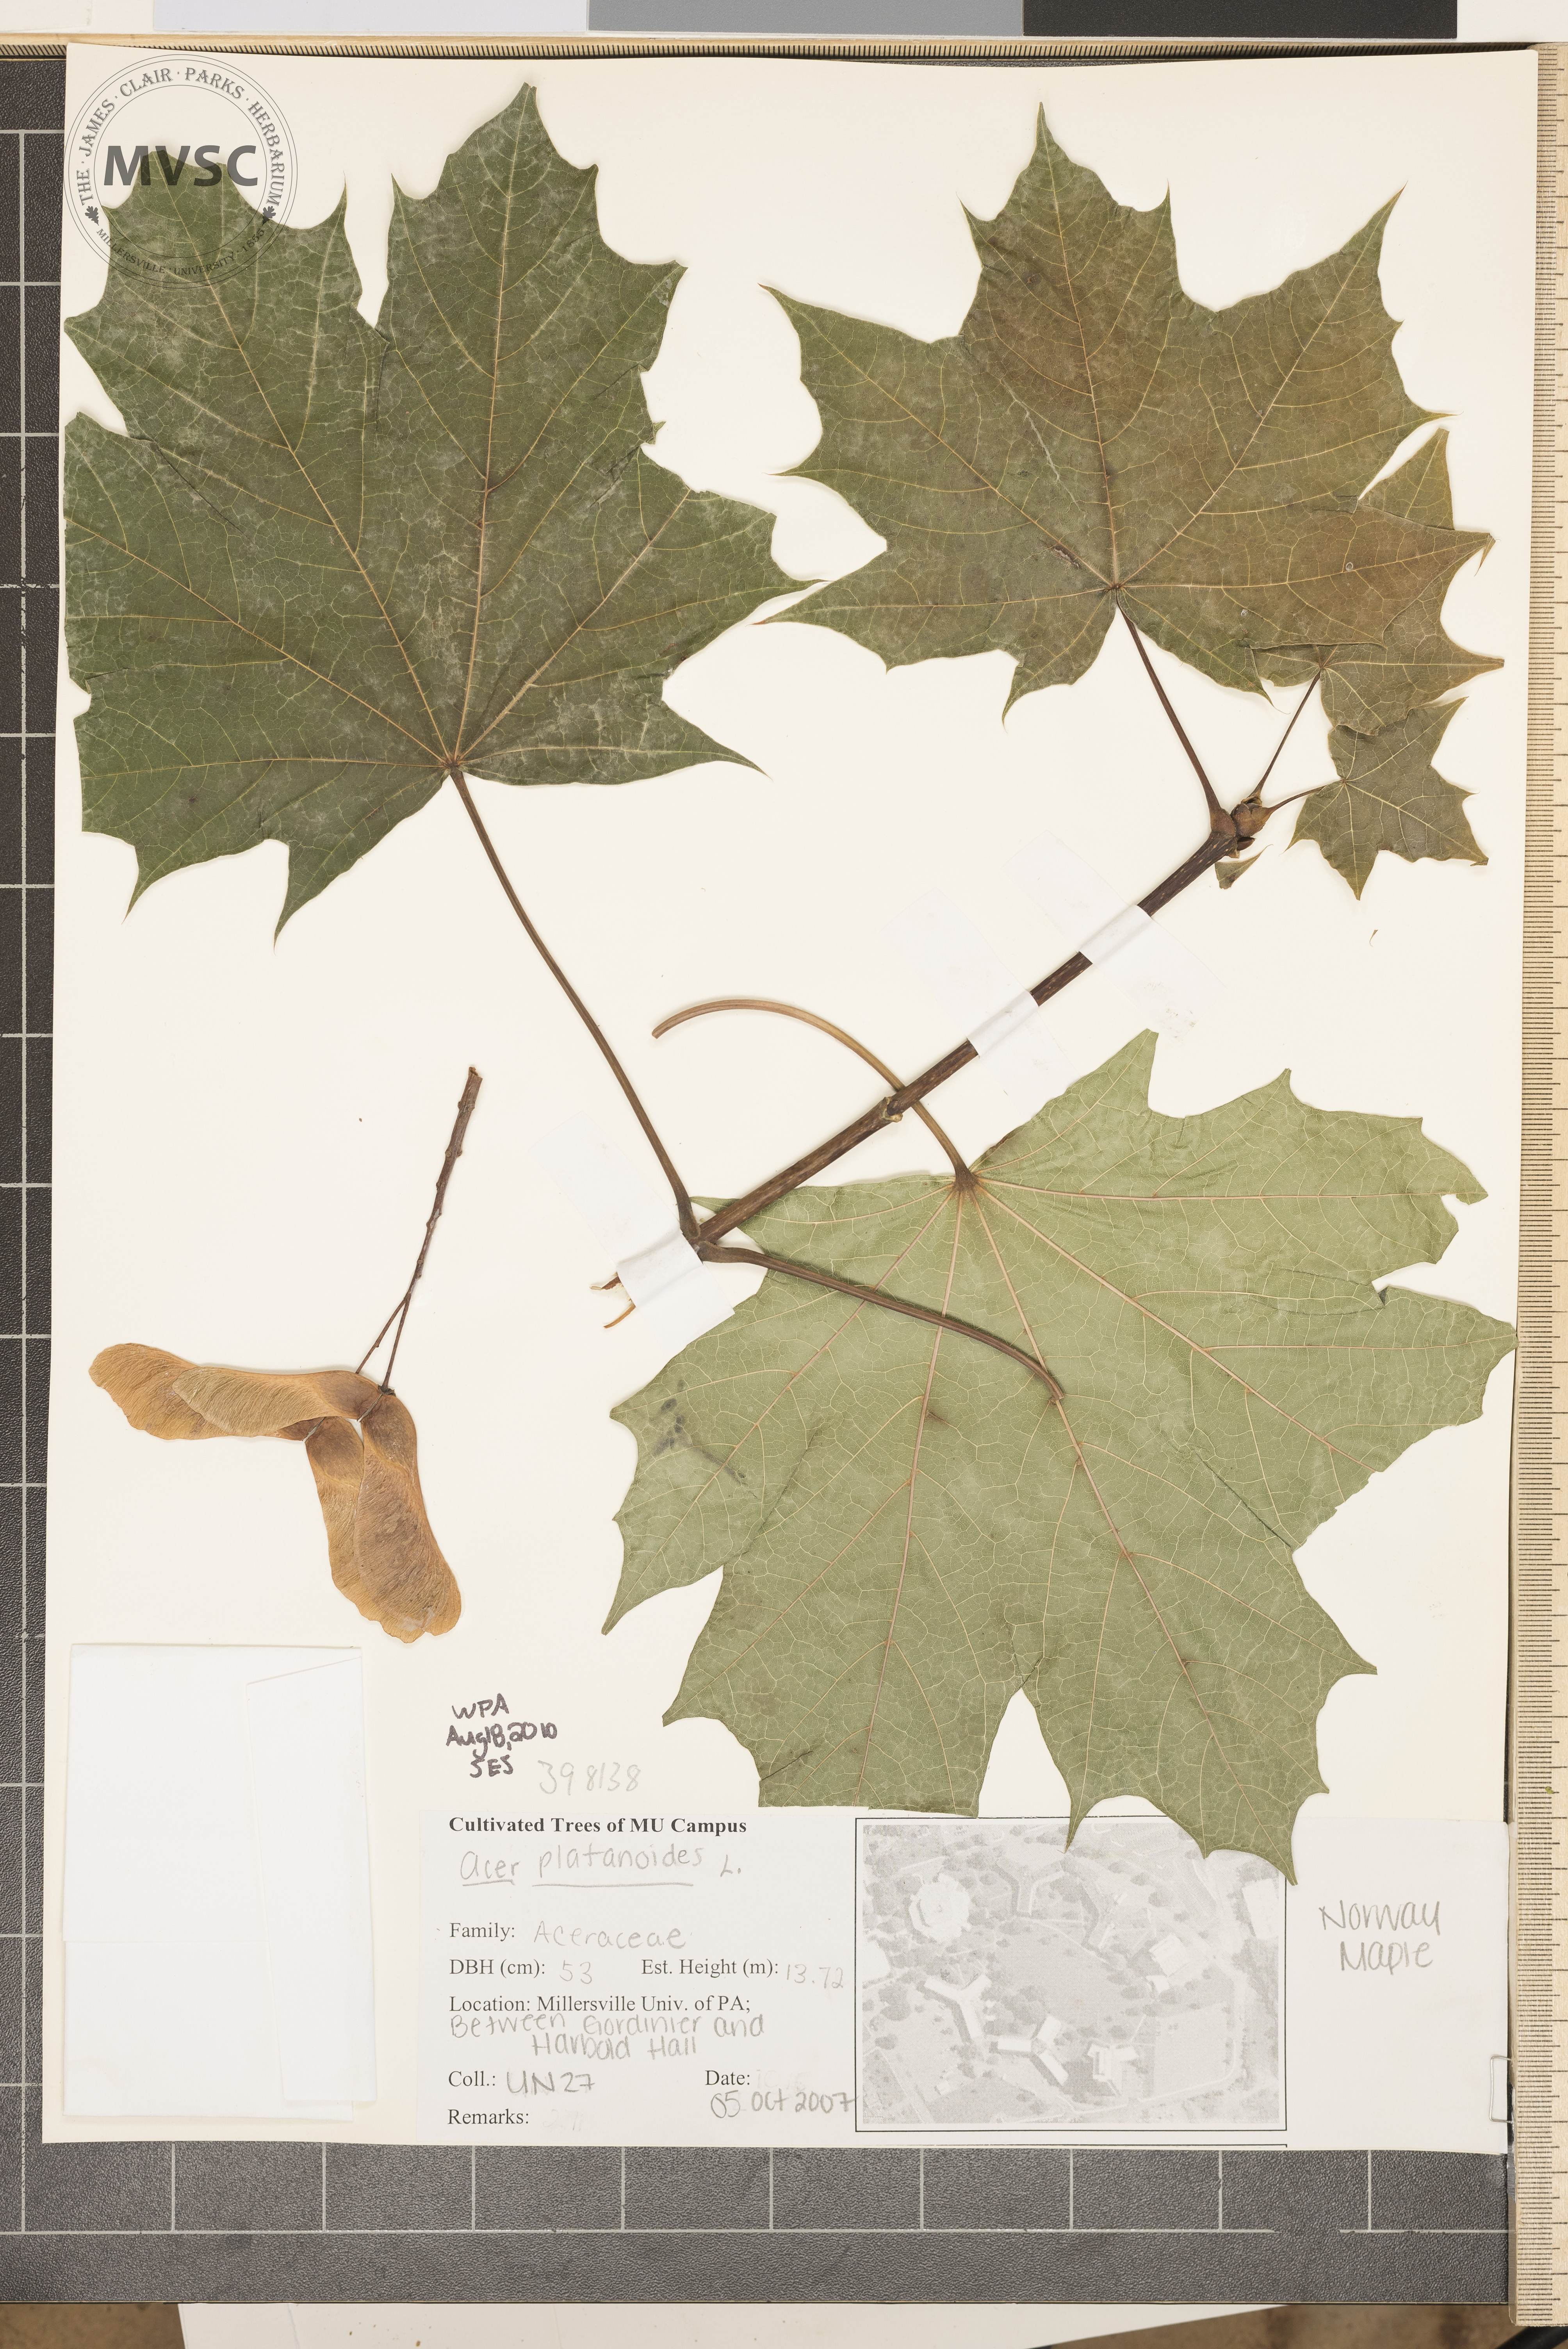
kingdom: Plantae
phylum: Tracheophyta
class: Magnoliopsida
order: Sapindales
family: Sapindaceae
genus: Acer
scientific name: Acer platanoides
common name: Norway maple
